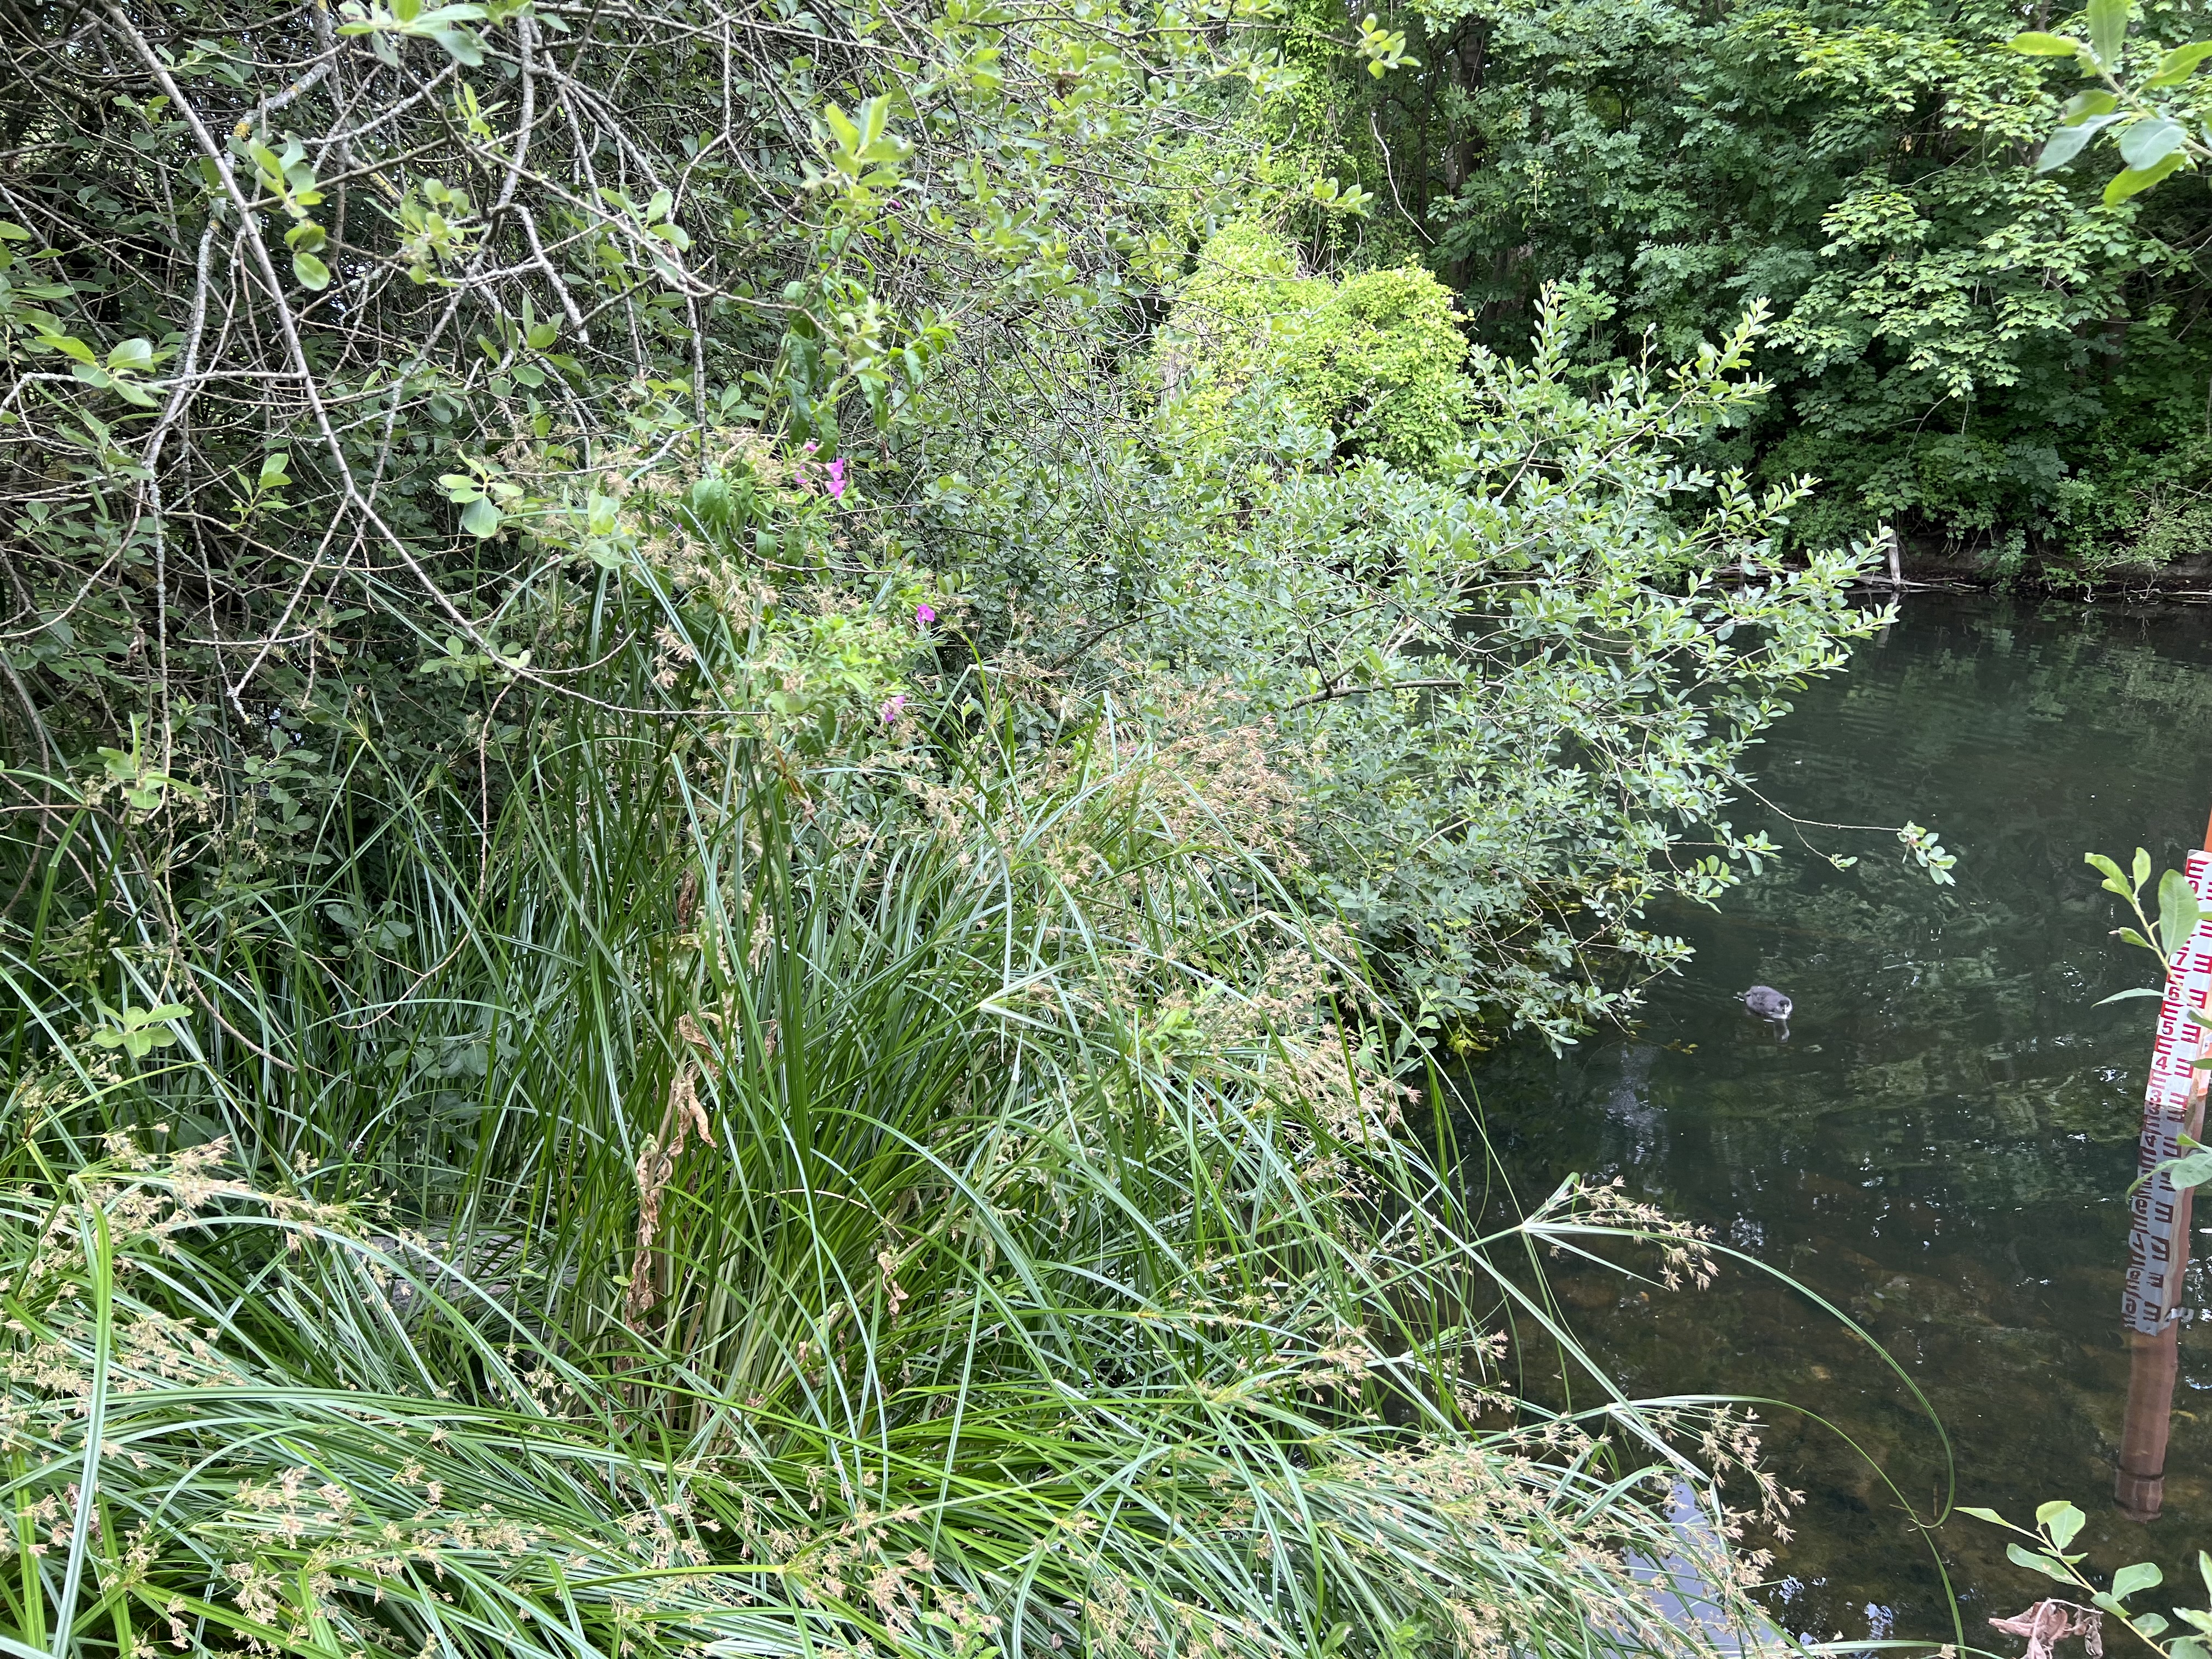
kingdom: Plantae
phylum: Tracheophyta
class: Liliopsida
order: Poales
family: Cyperaceae
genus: Cyperus
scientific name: Cyperus longus
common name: Smalbladet fladaks
